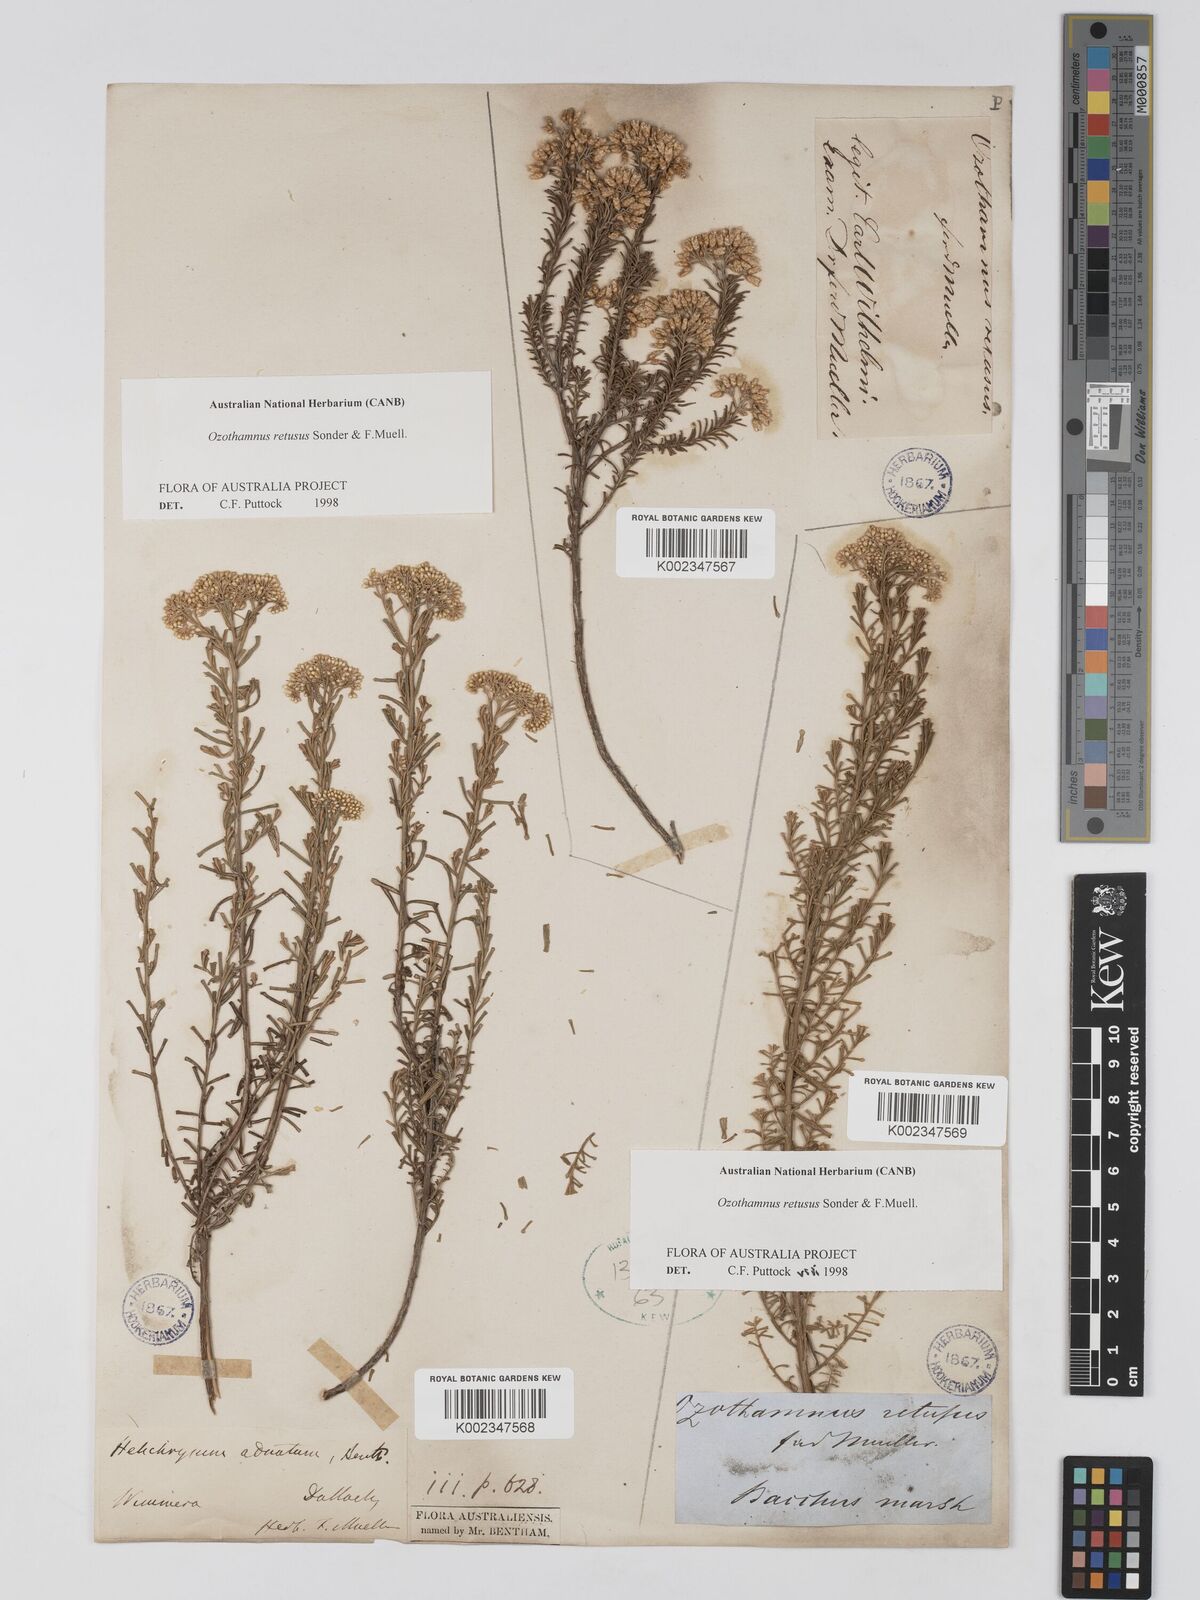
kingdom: Plantae
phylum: Tracheophyta
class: Magnoliopsida
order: Asterales
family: Asteraceae
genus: Ozothamnus
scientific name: Ozothamnus adnatus
